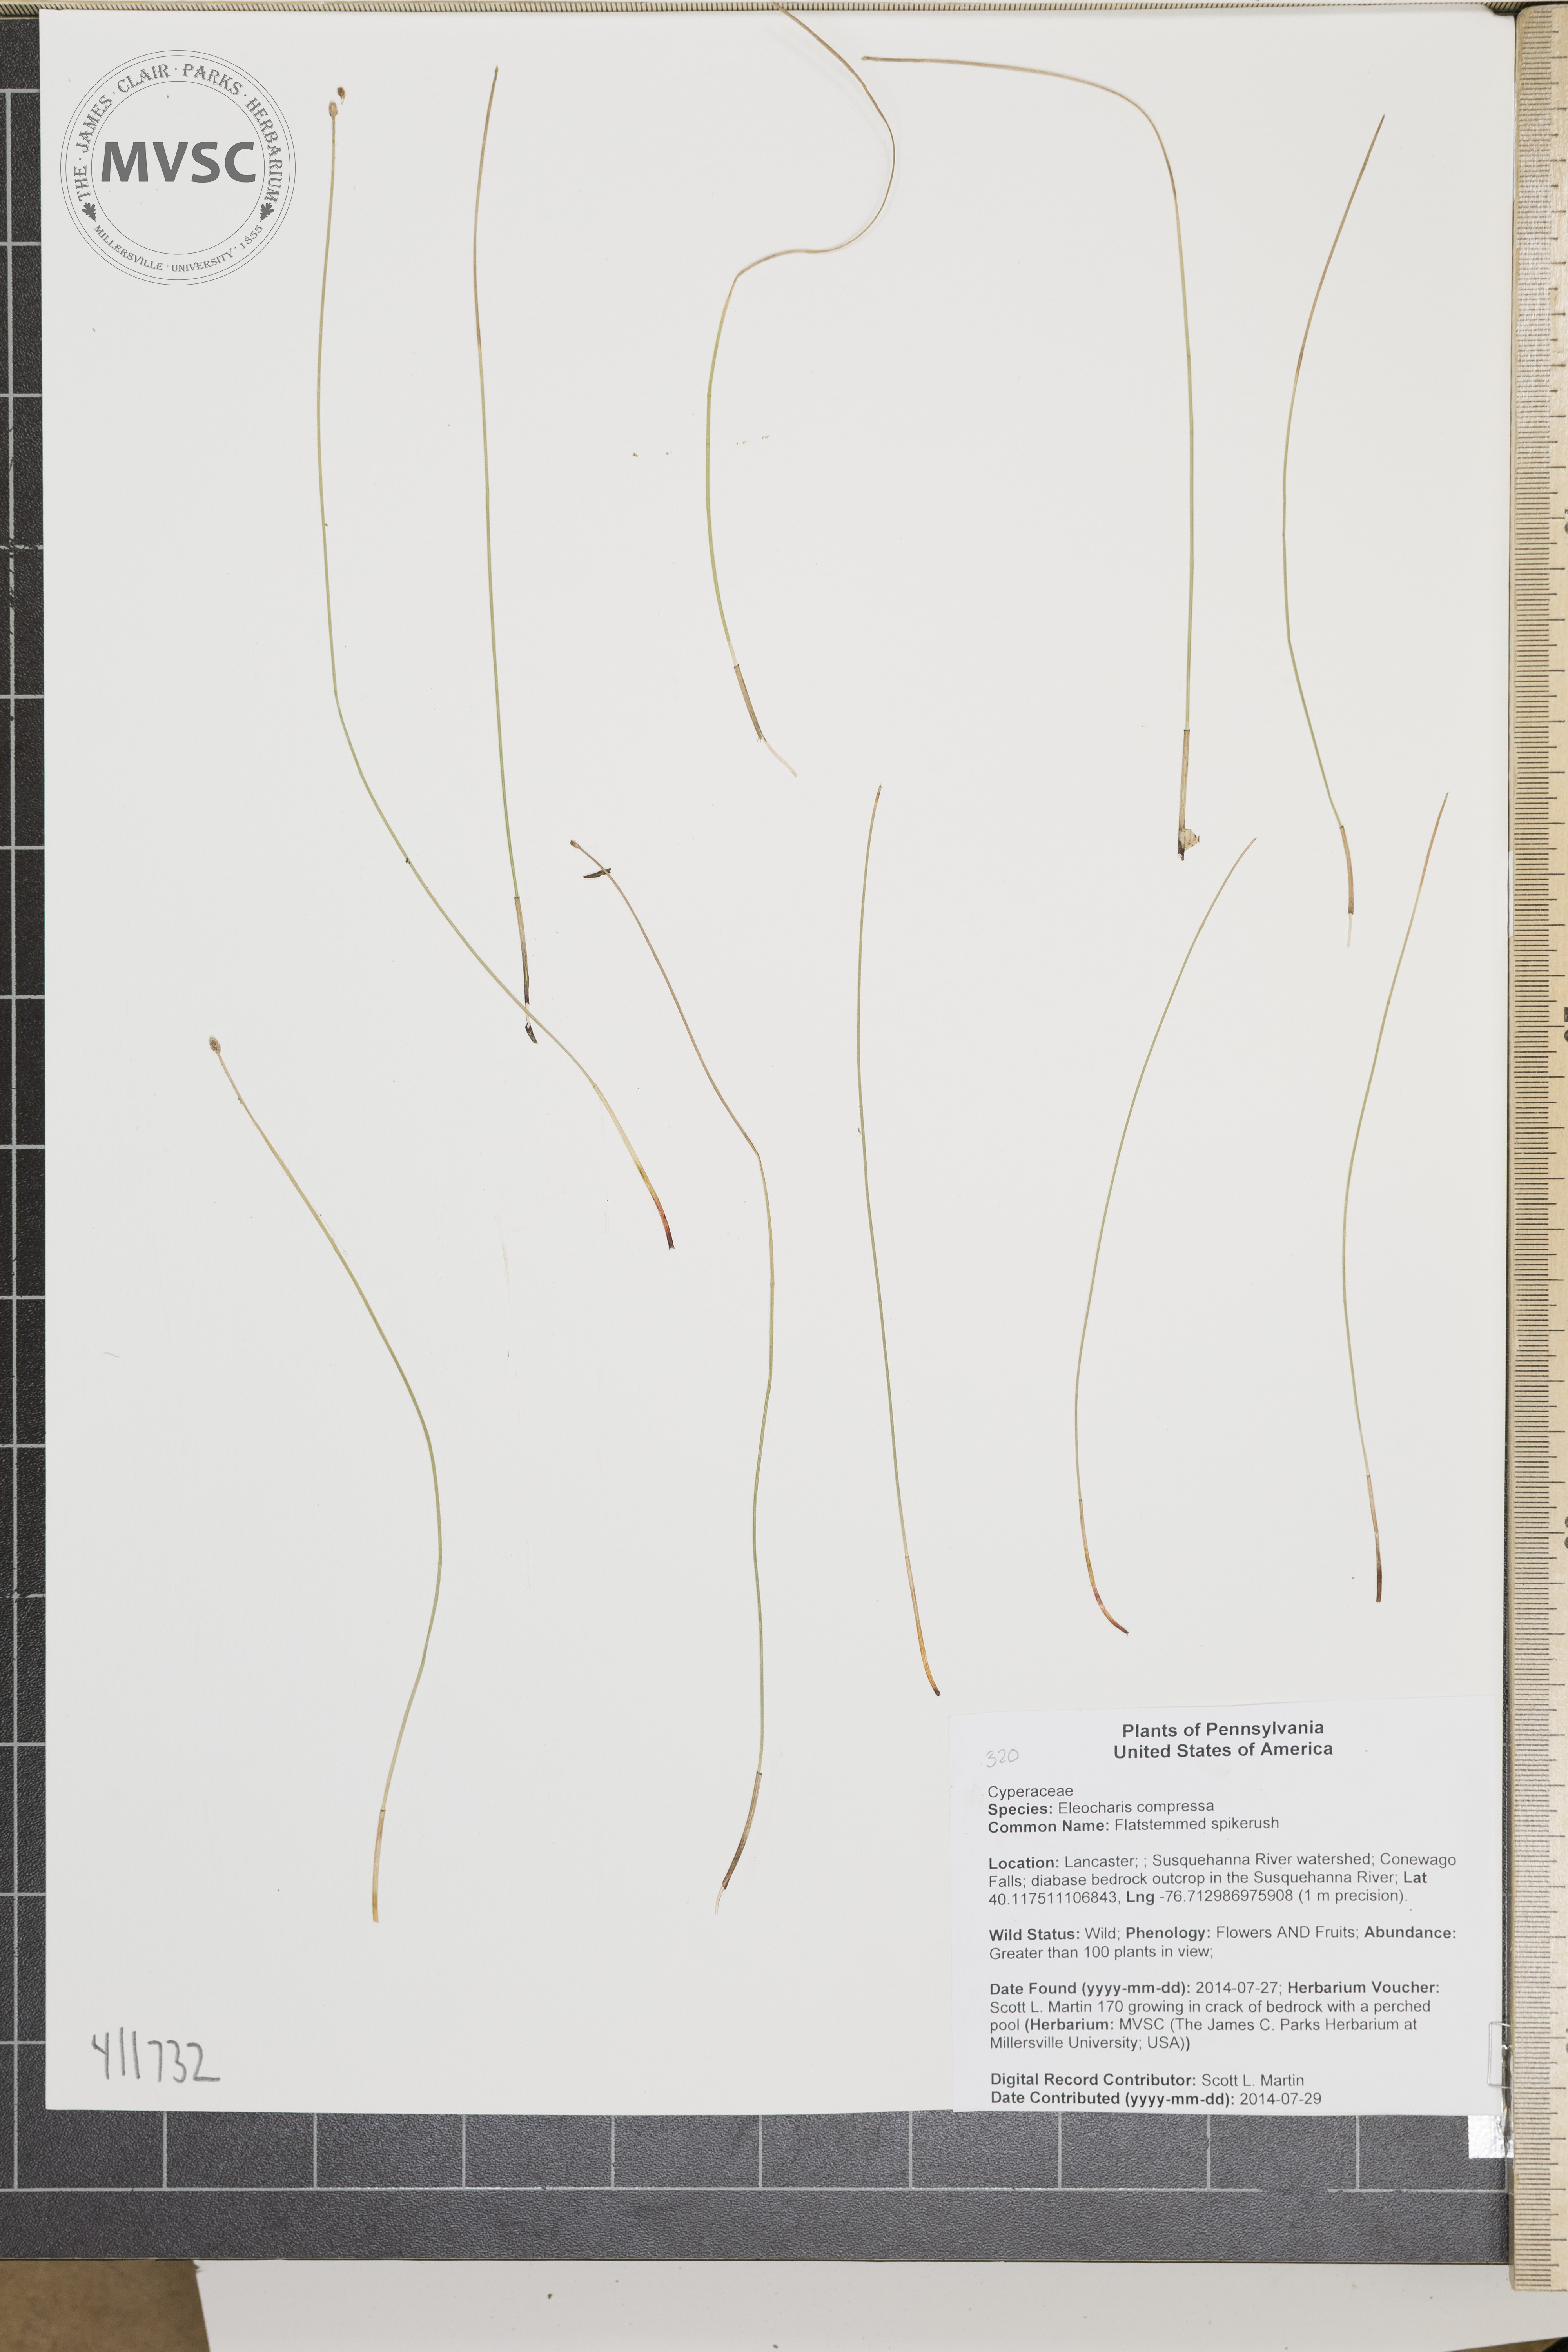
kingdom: Plantae
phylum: Tracheophyta
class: Liliopsida
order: Poales
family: Cyperaceae
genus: Eleocharis
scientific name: Eleocharis compressa
